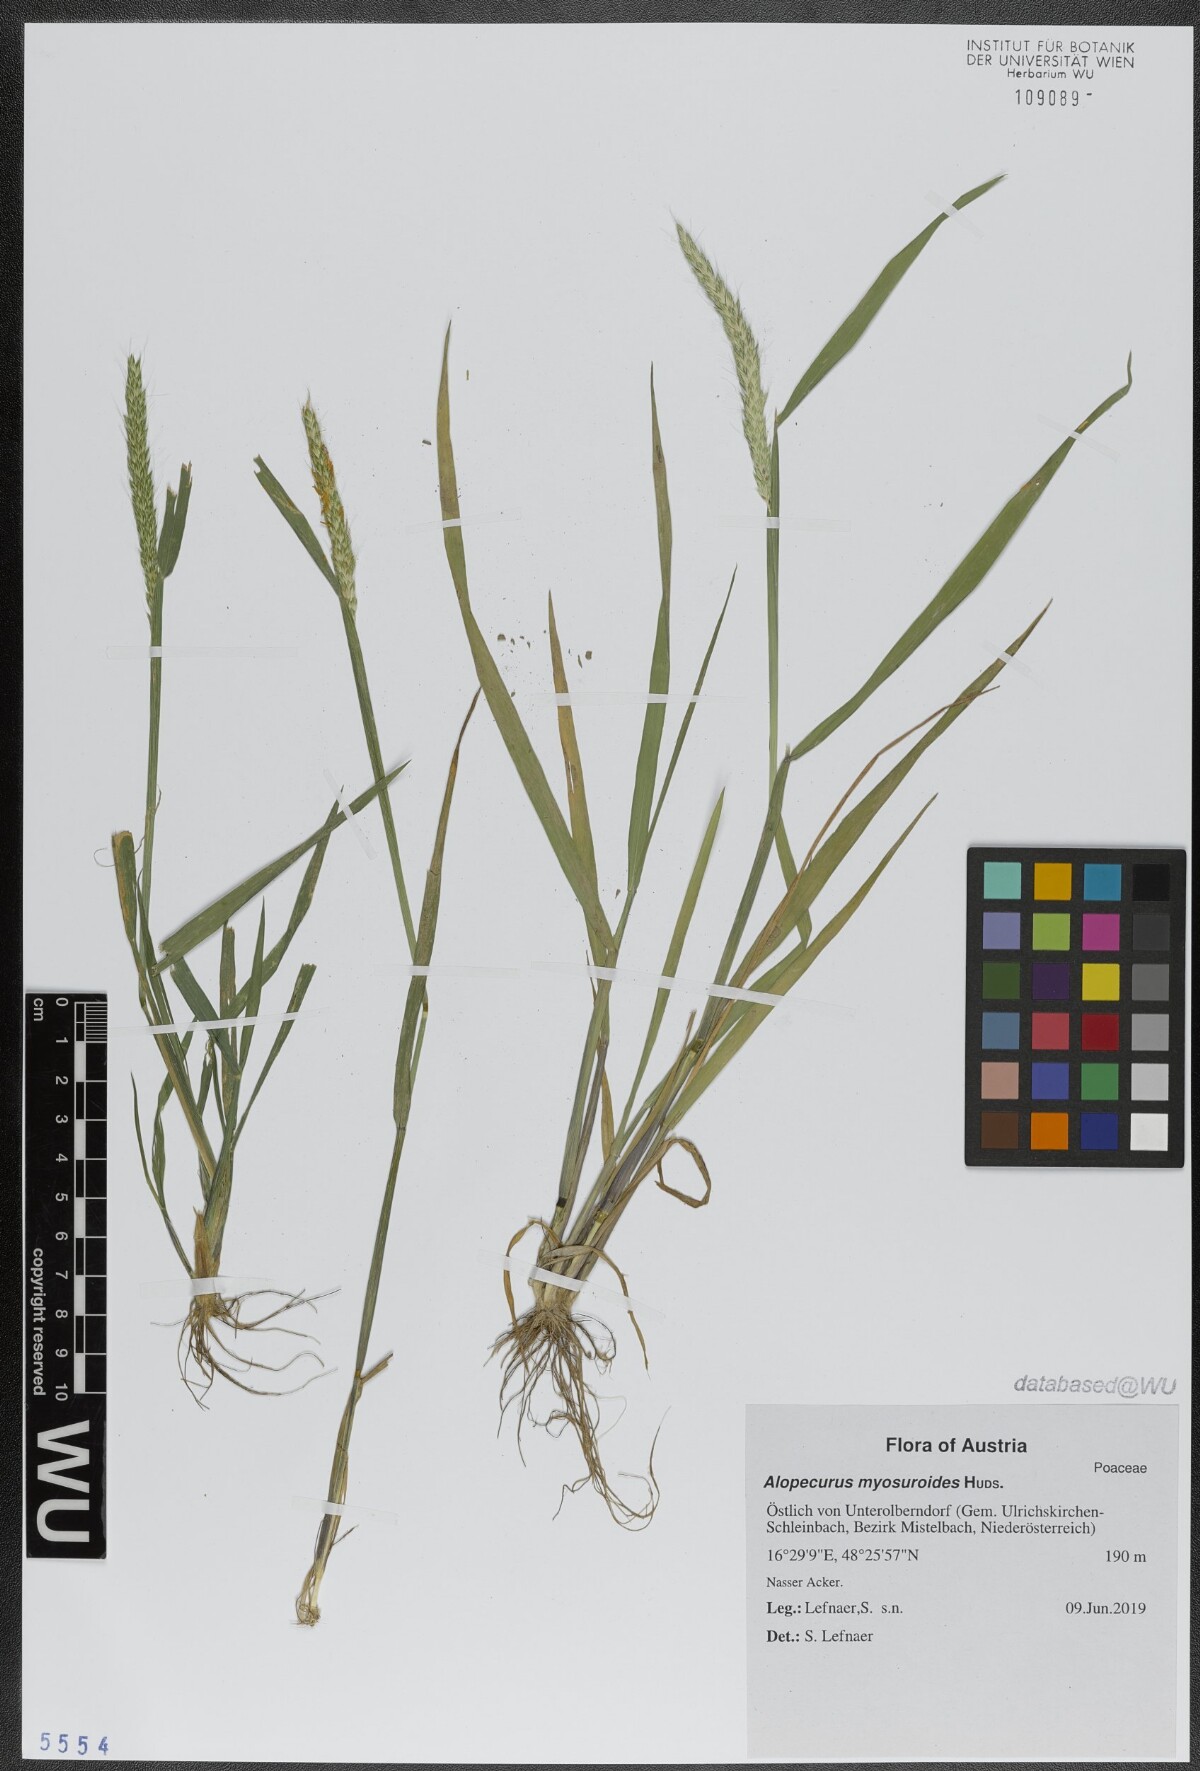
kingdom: Plantae
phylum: Tracheophyta
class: Liliopsida
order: Poales
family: Poaceae
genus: Alopecurus
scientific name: Alopecurus myosuroides
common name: Black-grass
